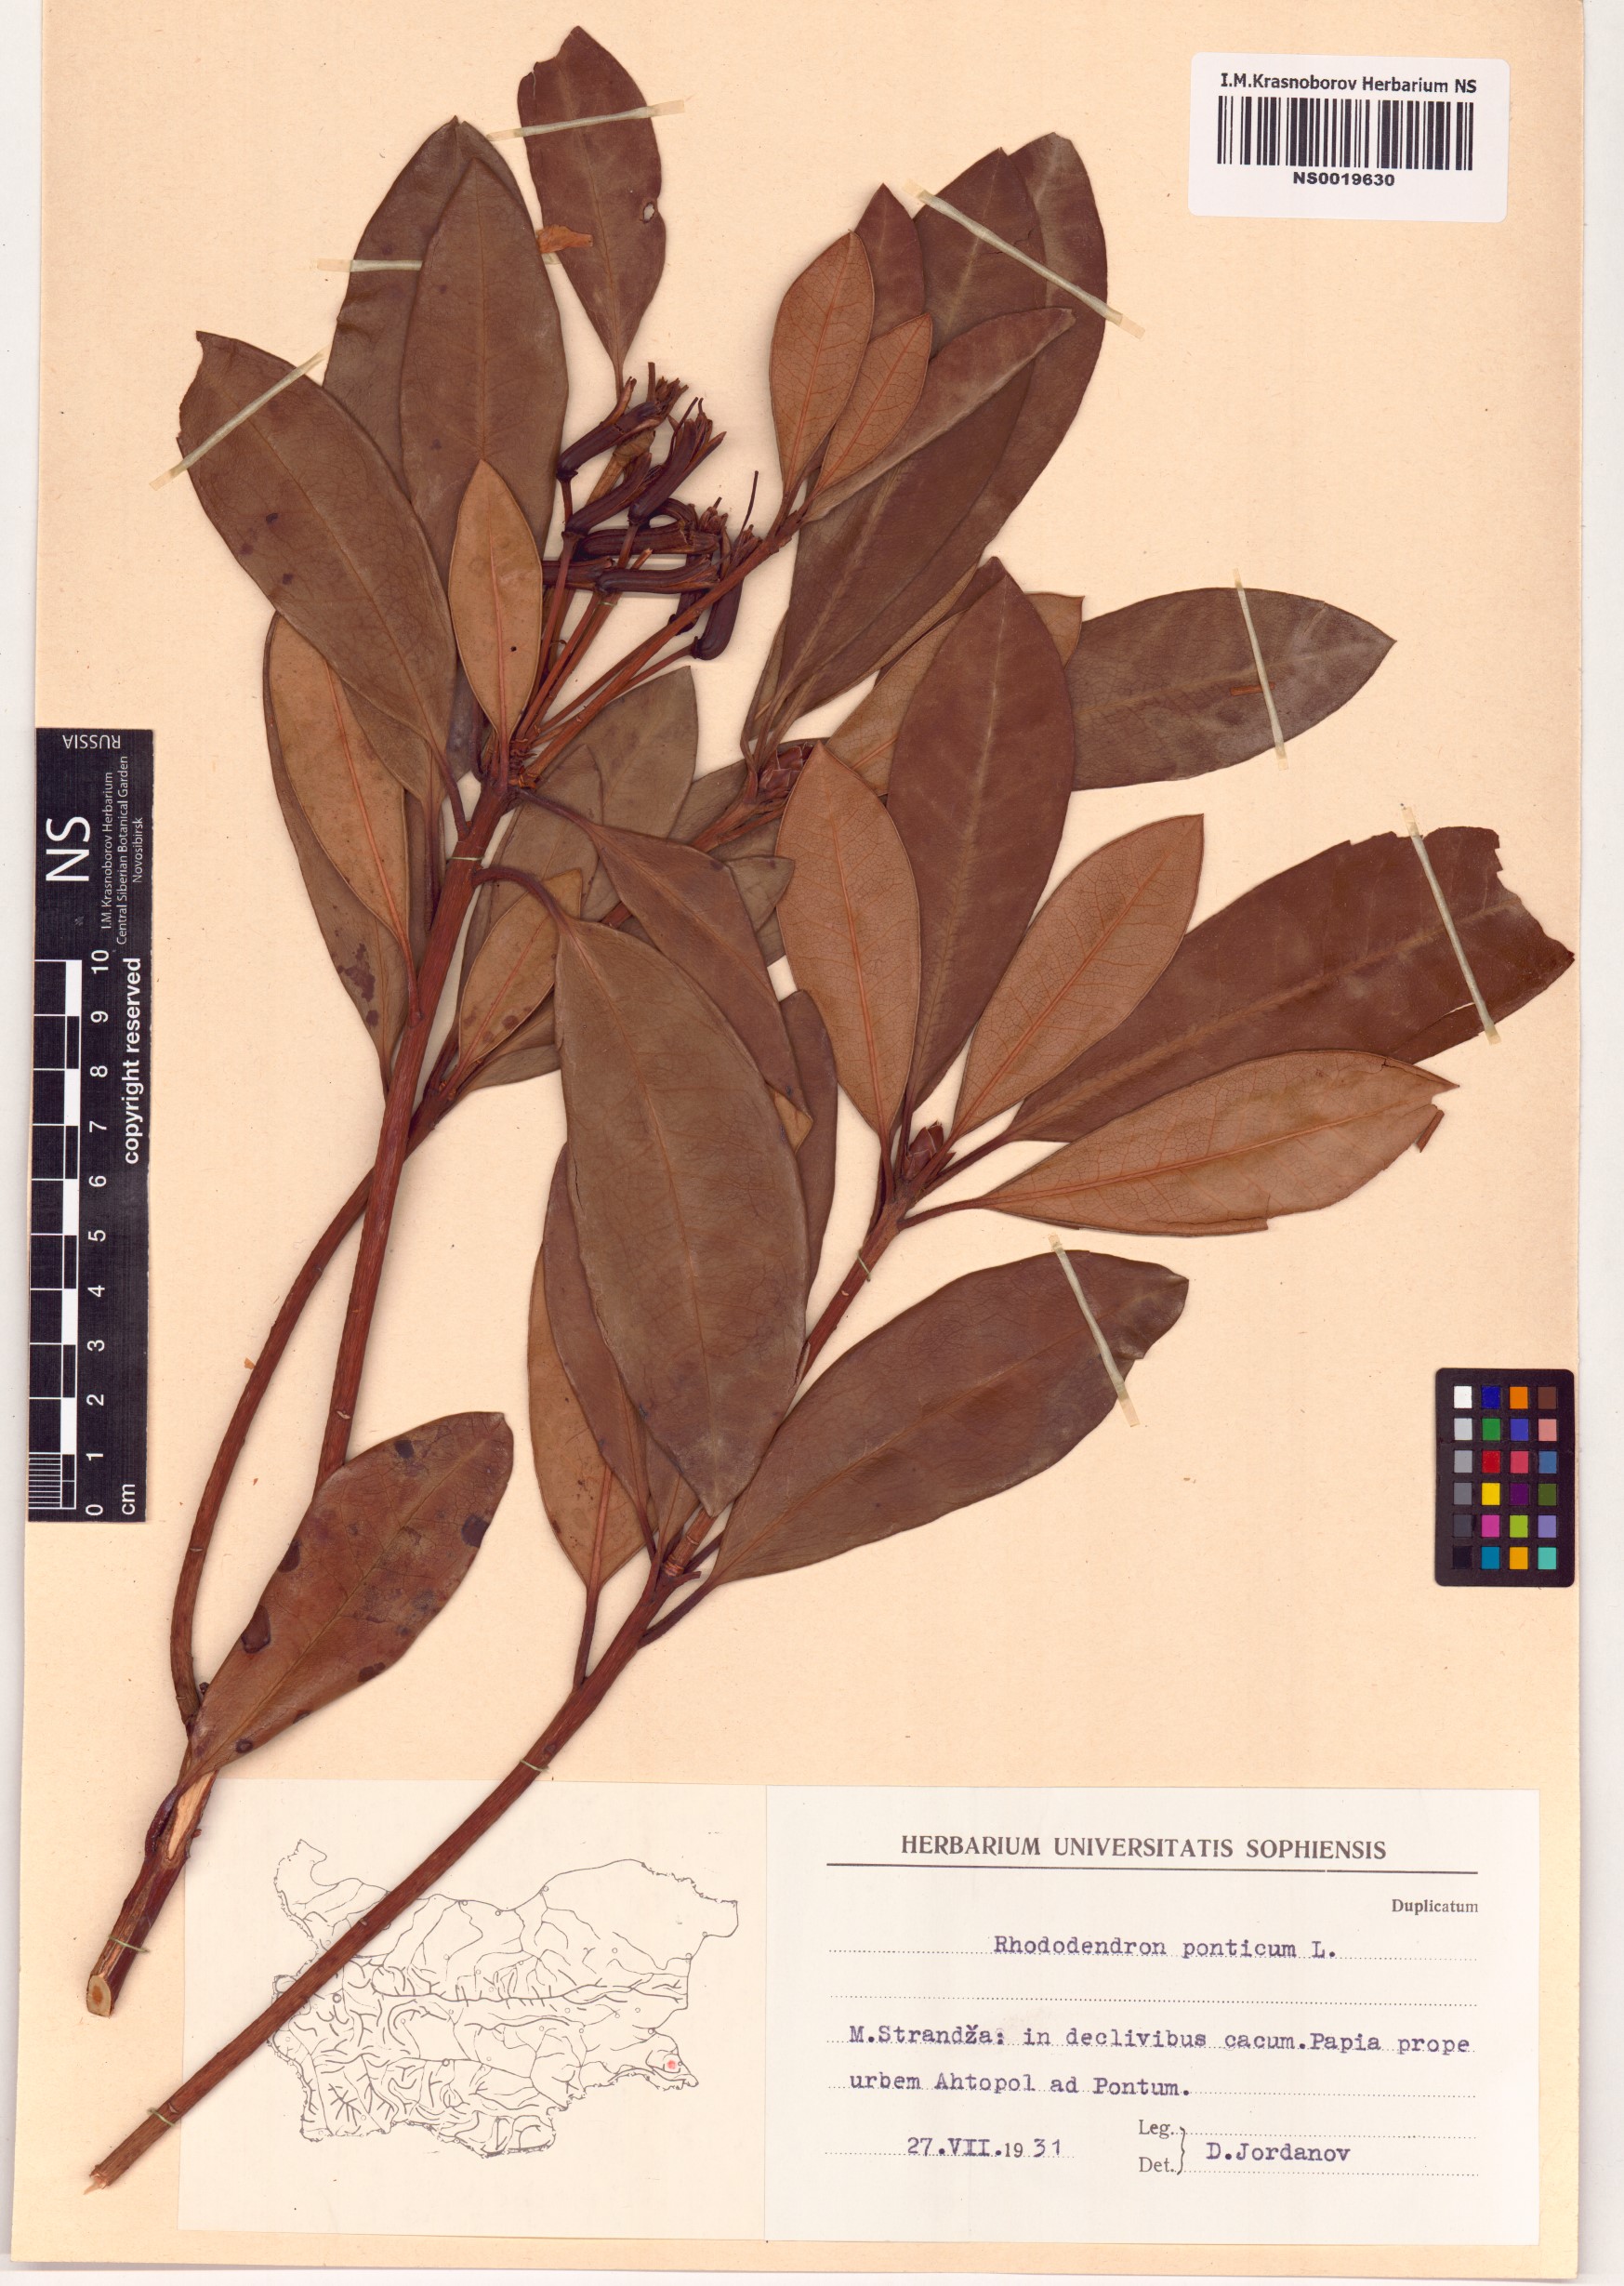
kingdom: Plantae
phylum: Tracheophyta
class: Magnoliopsida
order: Ericales
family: Ericaceae
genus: Rhododendron
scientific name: Rhododendron ponticum
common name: Rhododendron
